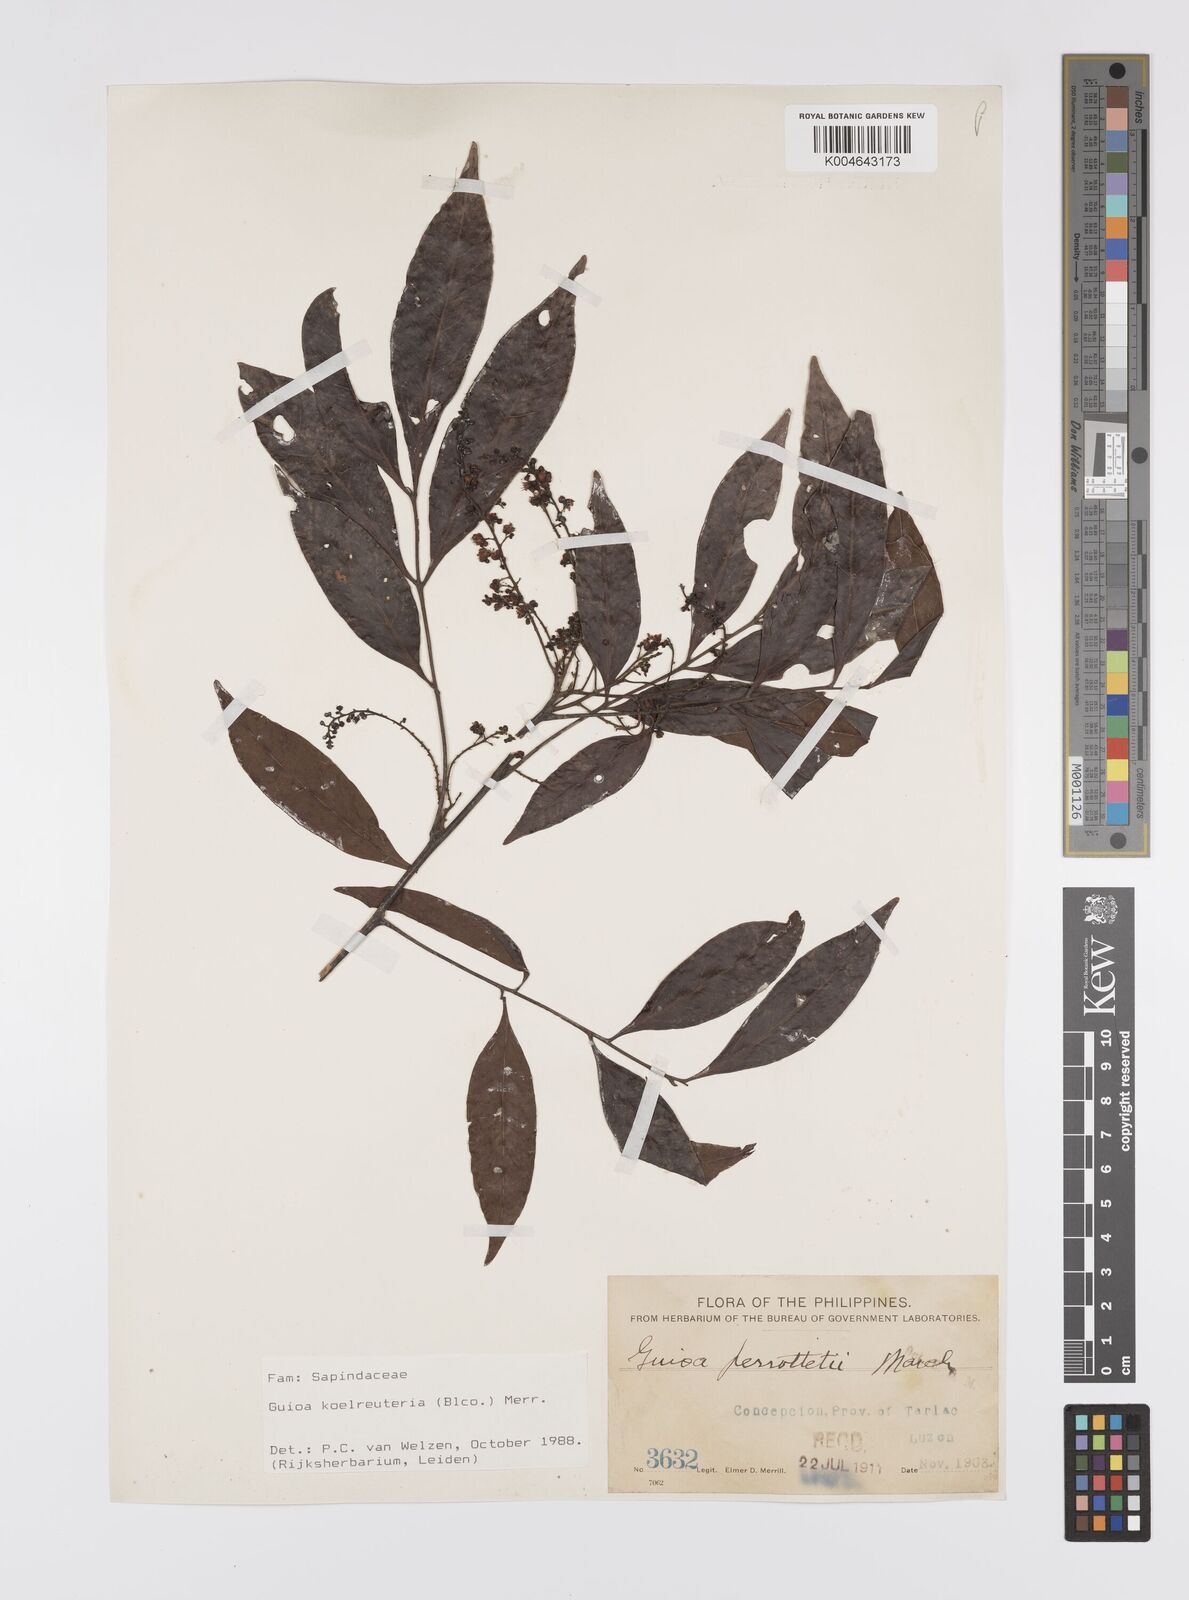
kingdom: Plantae
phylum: Tracheophyta
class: Magnoliopsida
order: Sapindales
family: Sapindaceae
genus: Guioa
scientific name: Guioa koelreuteria
